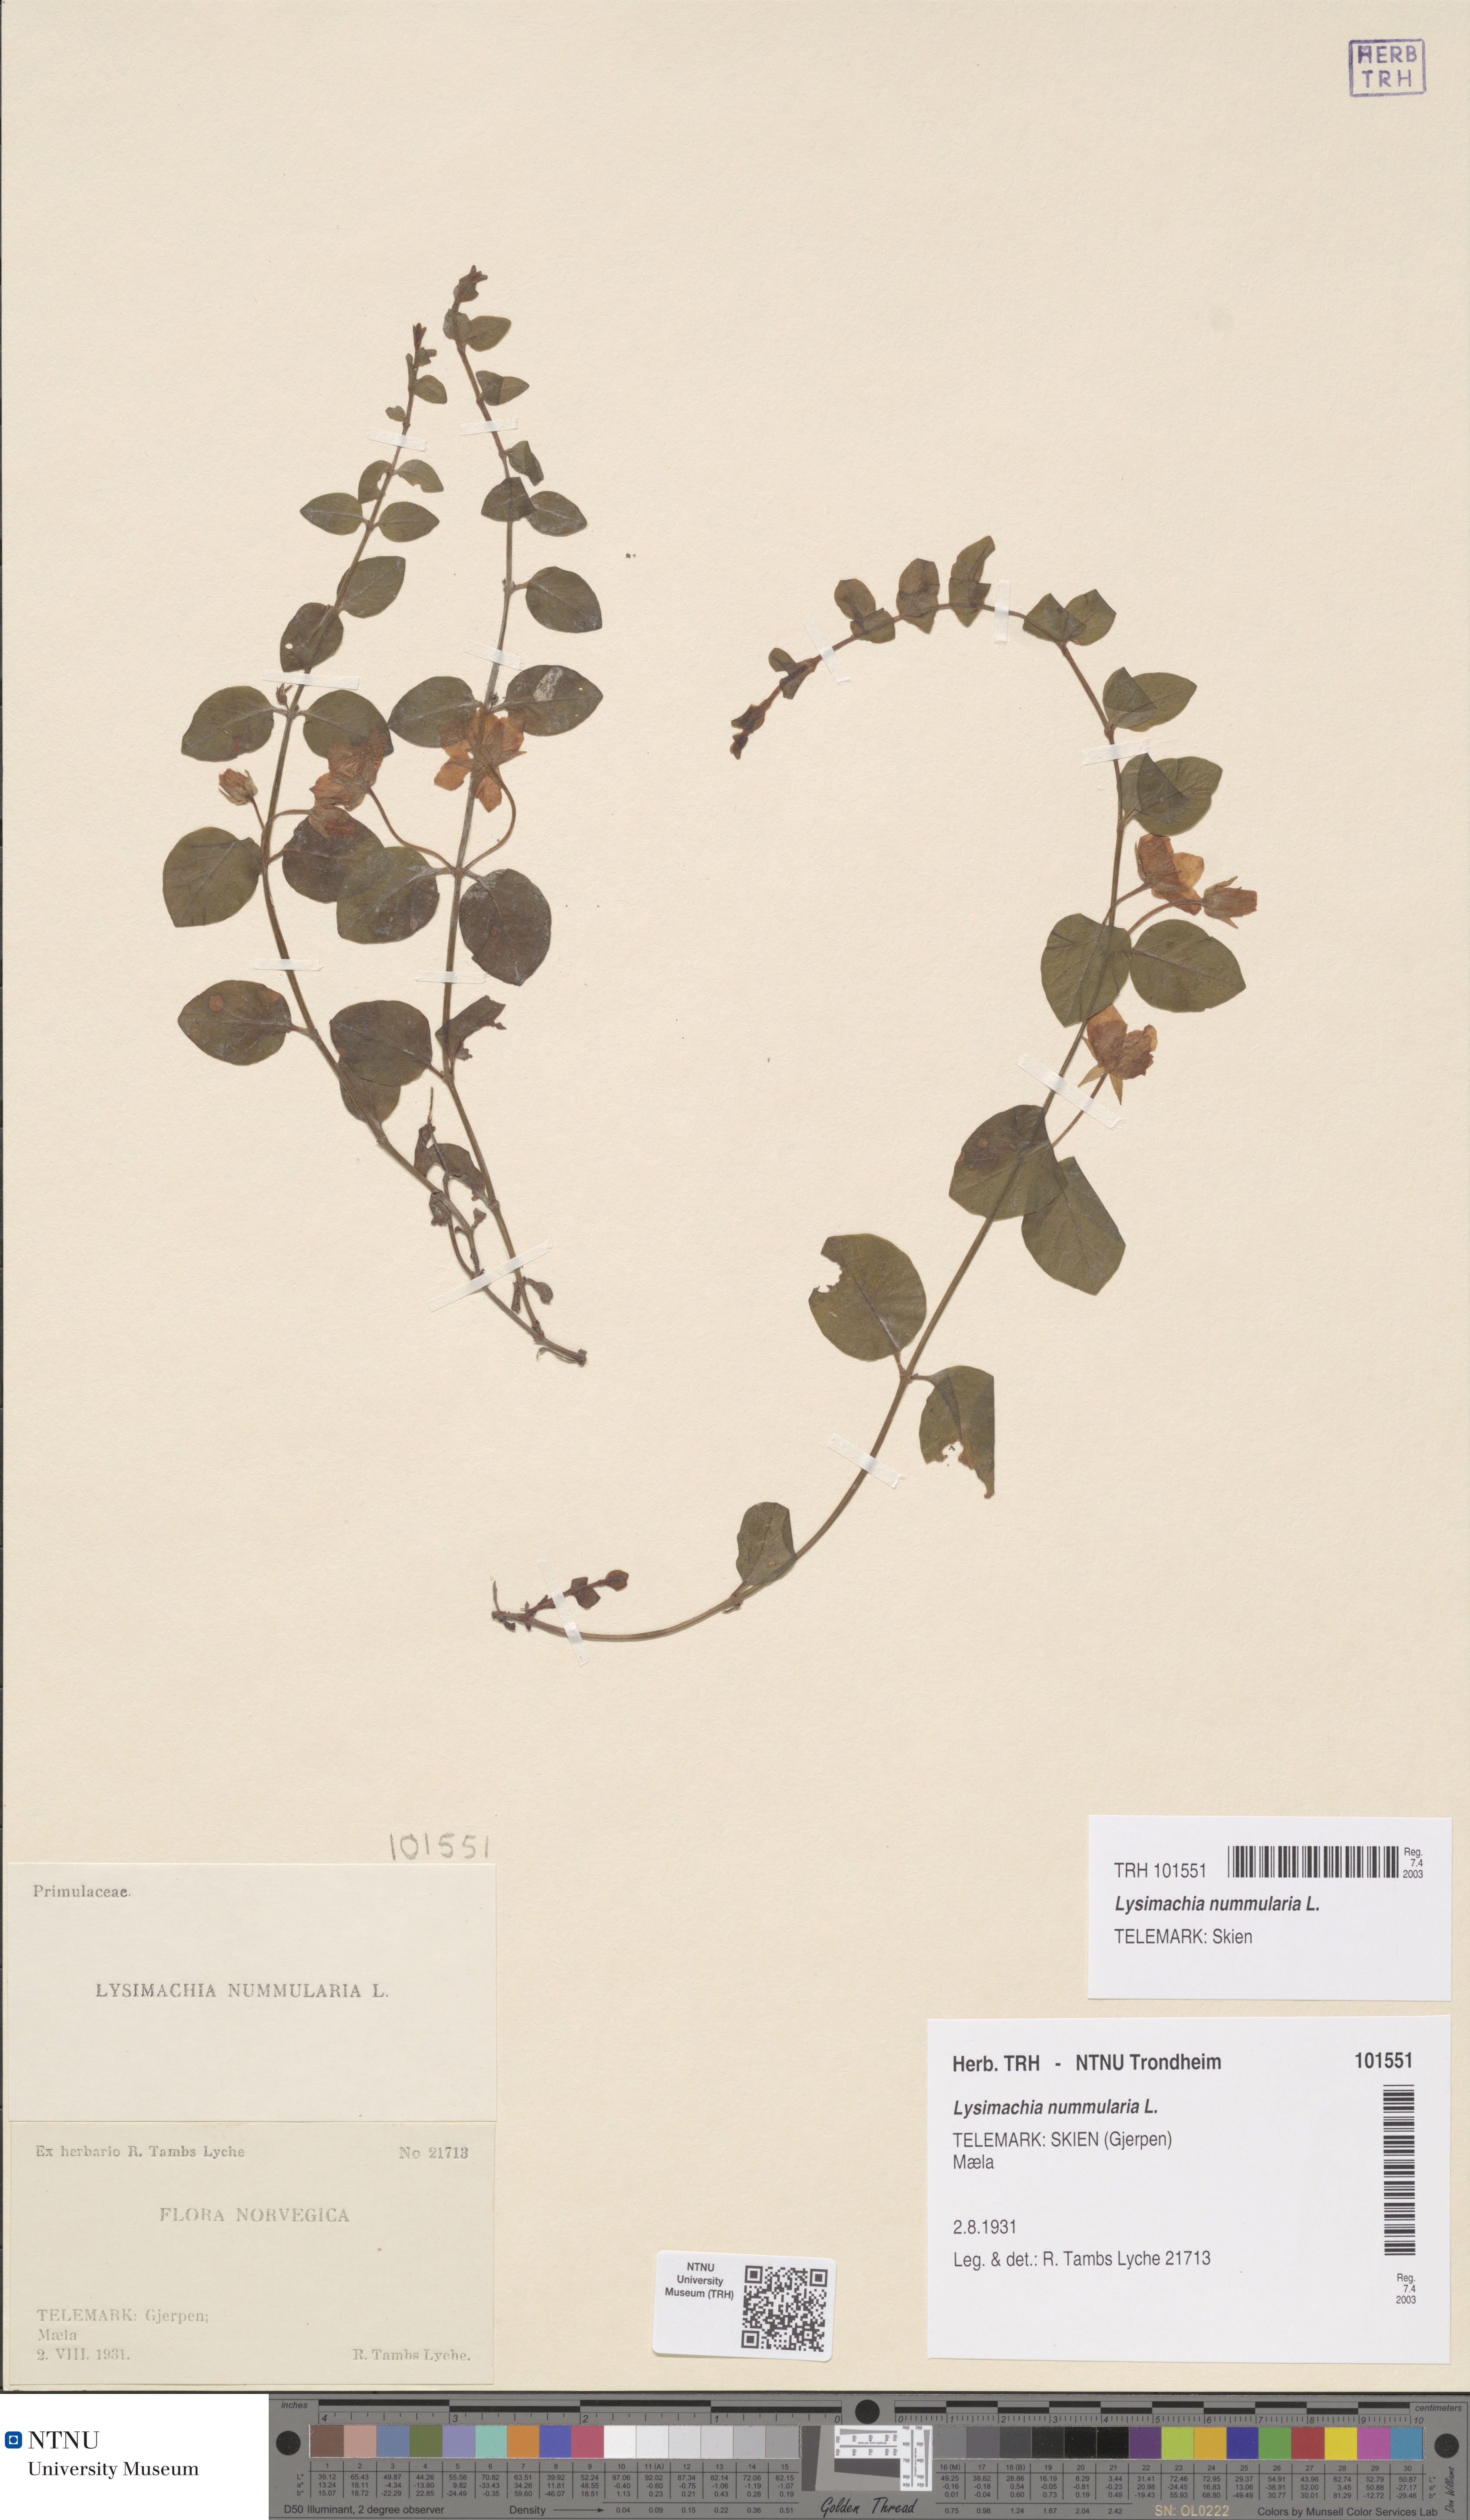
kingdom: Plantae
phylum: Tracheophyta
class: Magnoliopsida
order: Ericales
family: Primulaceae
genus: Lysimachia
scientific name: Lysimachia nummularia
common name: Moneywort
